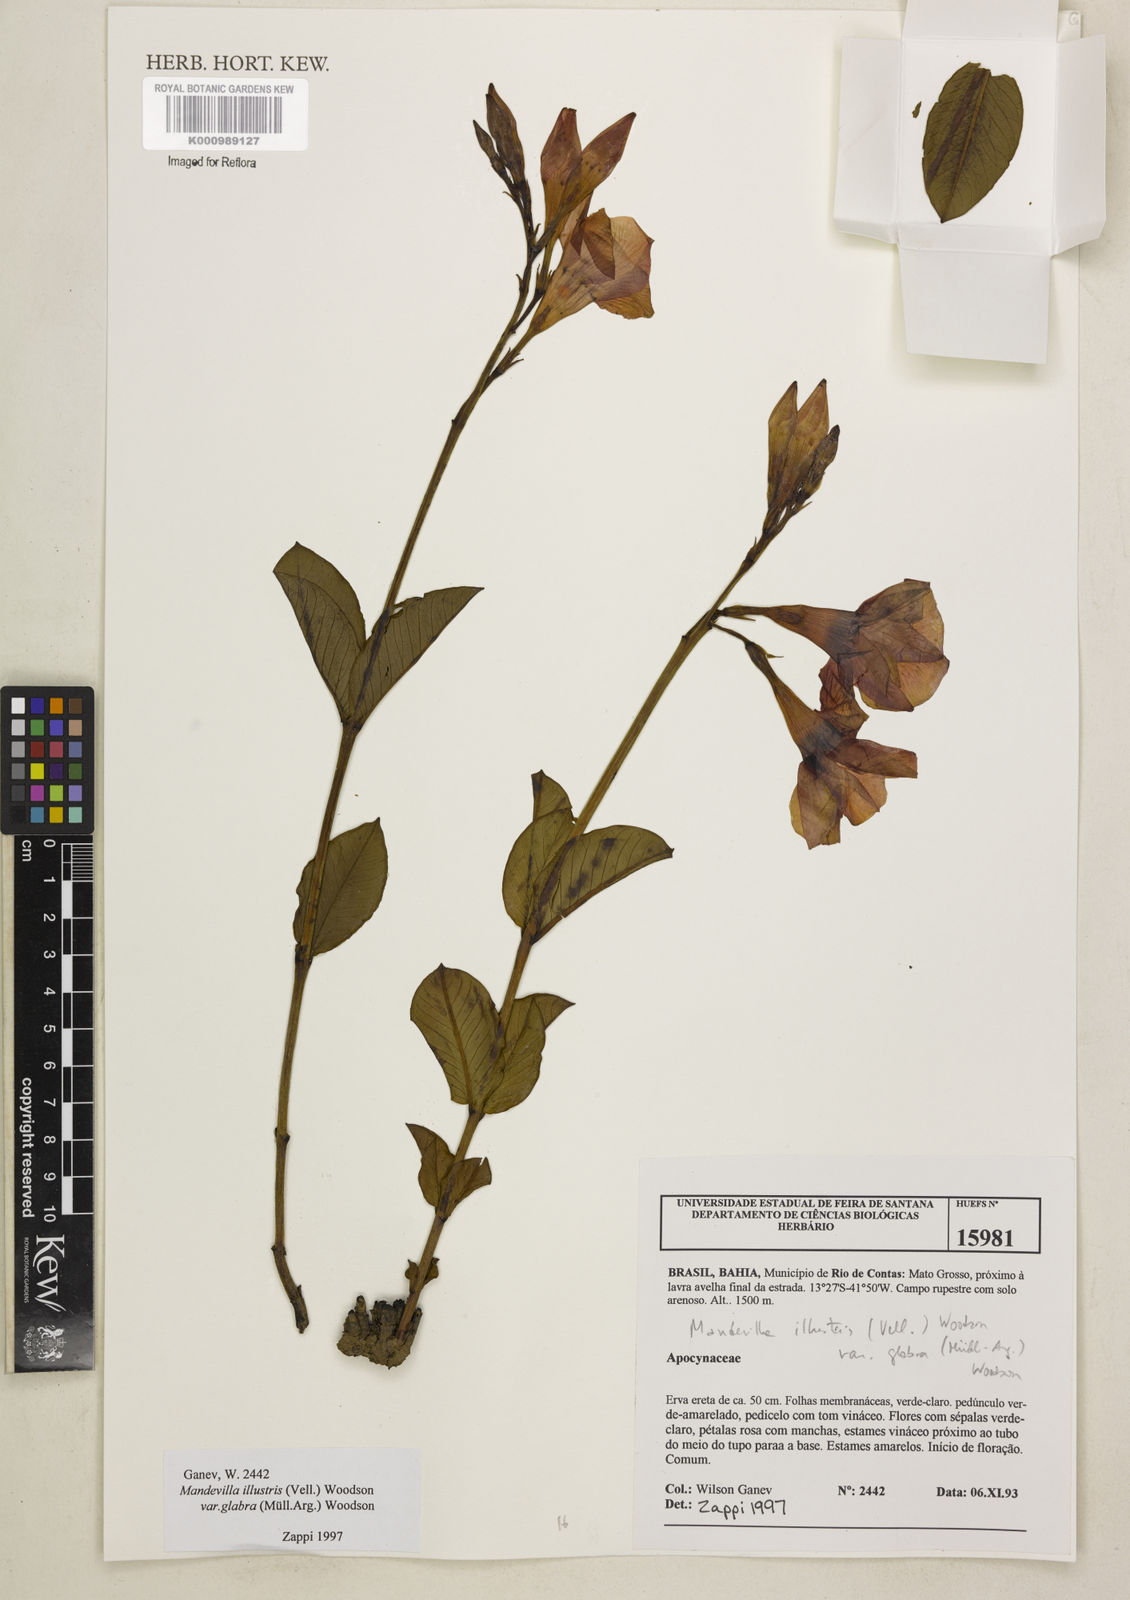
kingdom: Plantae
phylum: Tracheophyta
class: Magnoliopsida
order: Gentianales
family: Apocynaceae
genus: Mandevilla
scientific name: Mandevilla
